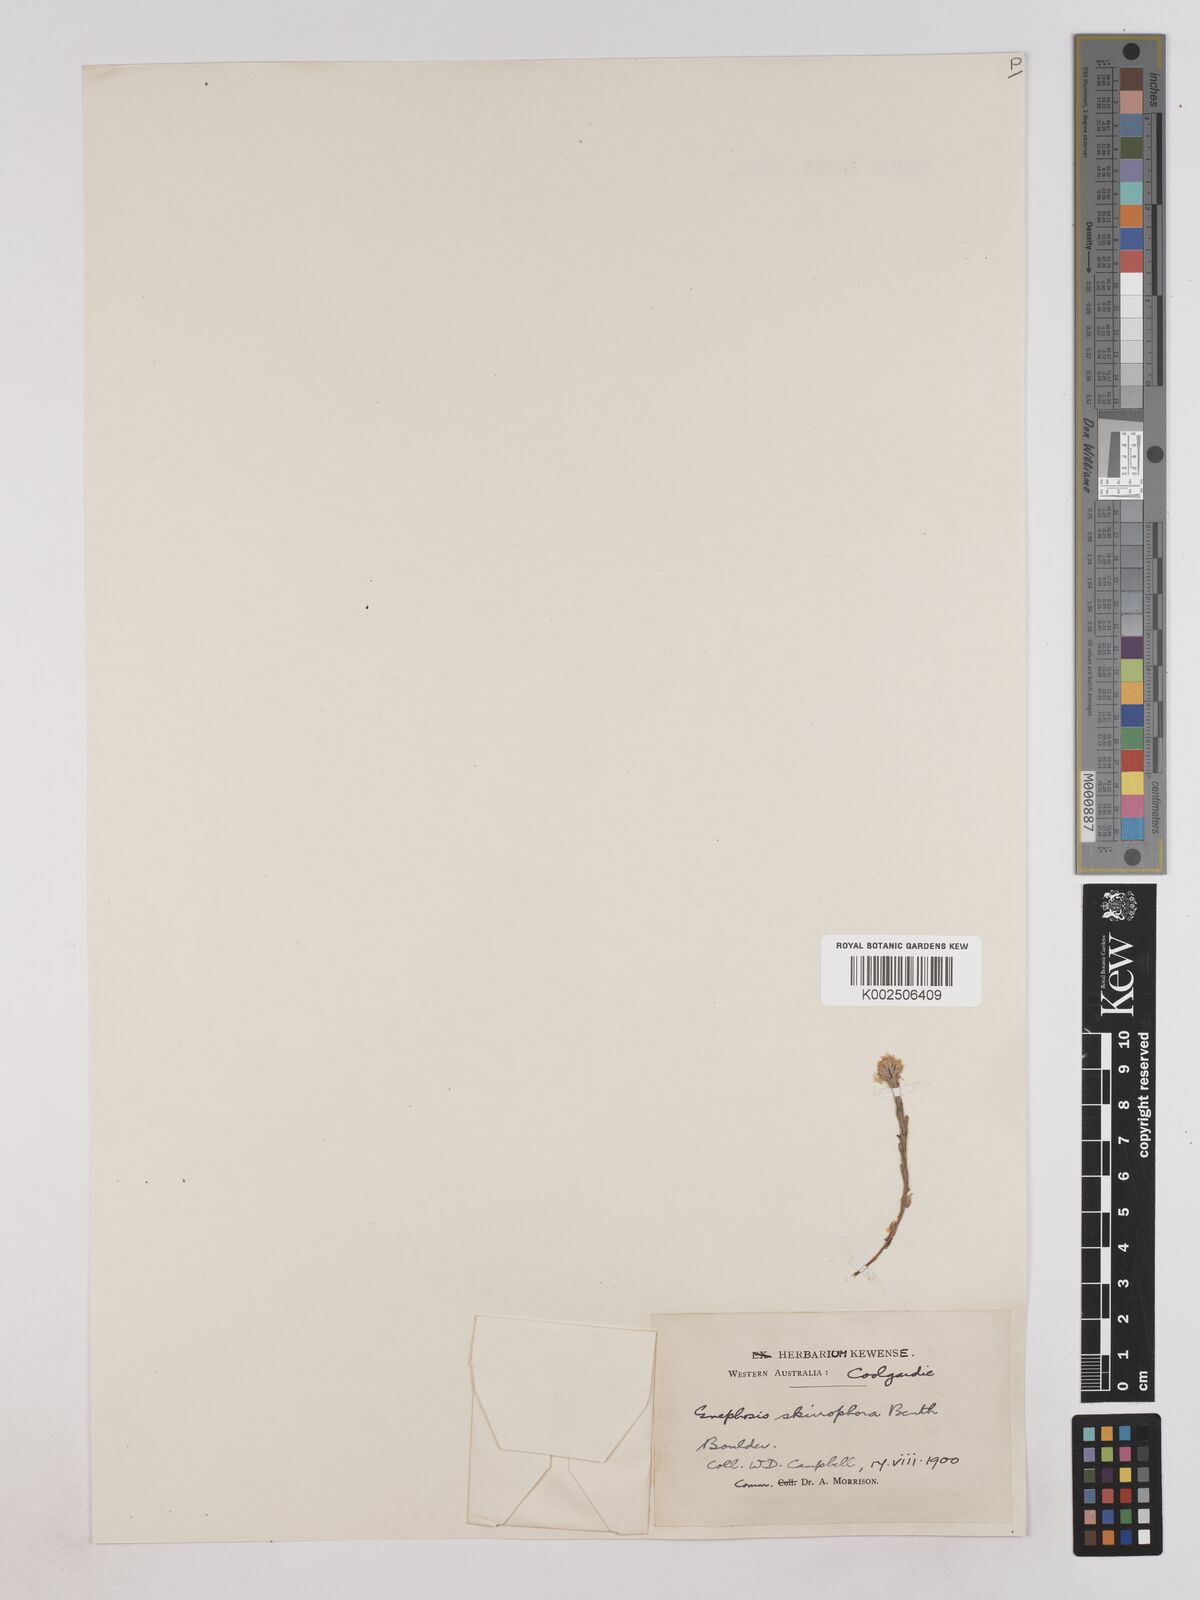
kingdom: Plantae
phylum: Tracheophyta
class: Magnoliopsida
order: Asterales
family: Asteraceae
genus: Trichanthodium
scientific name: Trichanthodium skirrophorum
